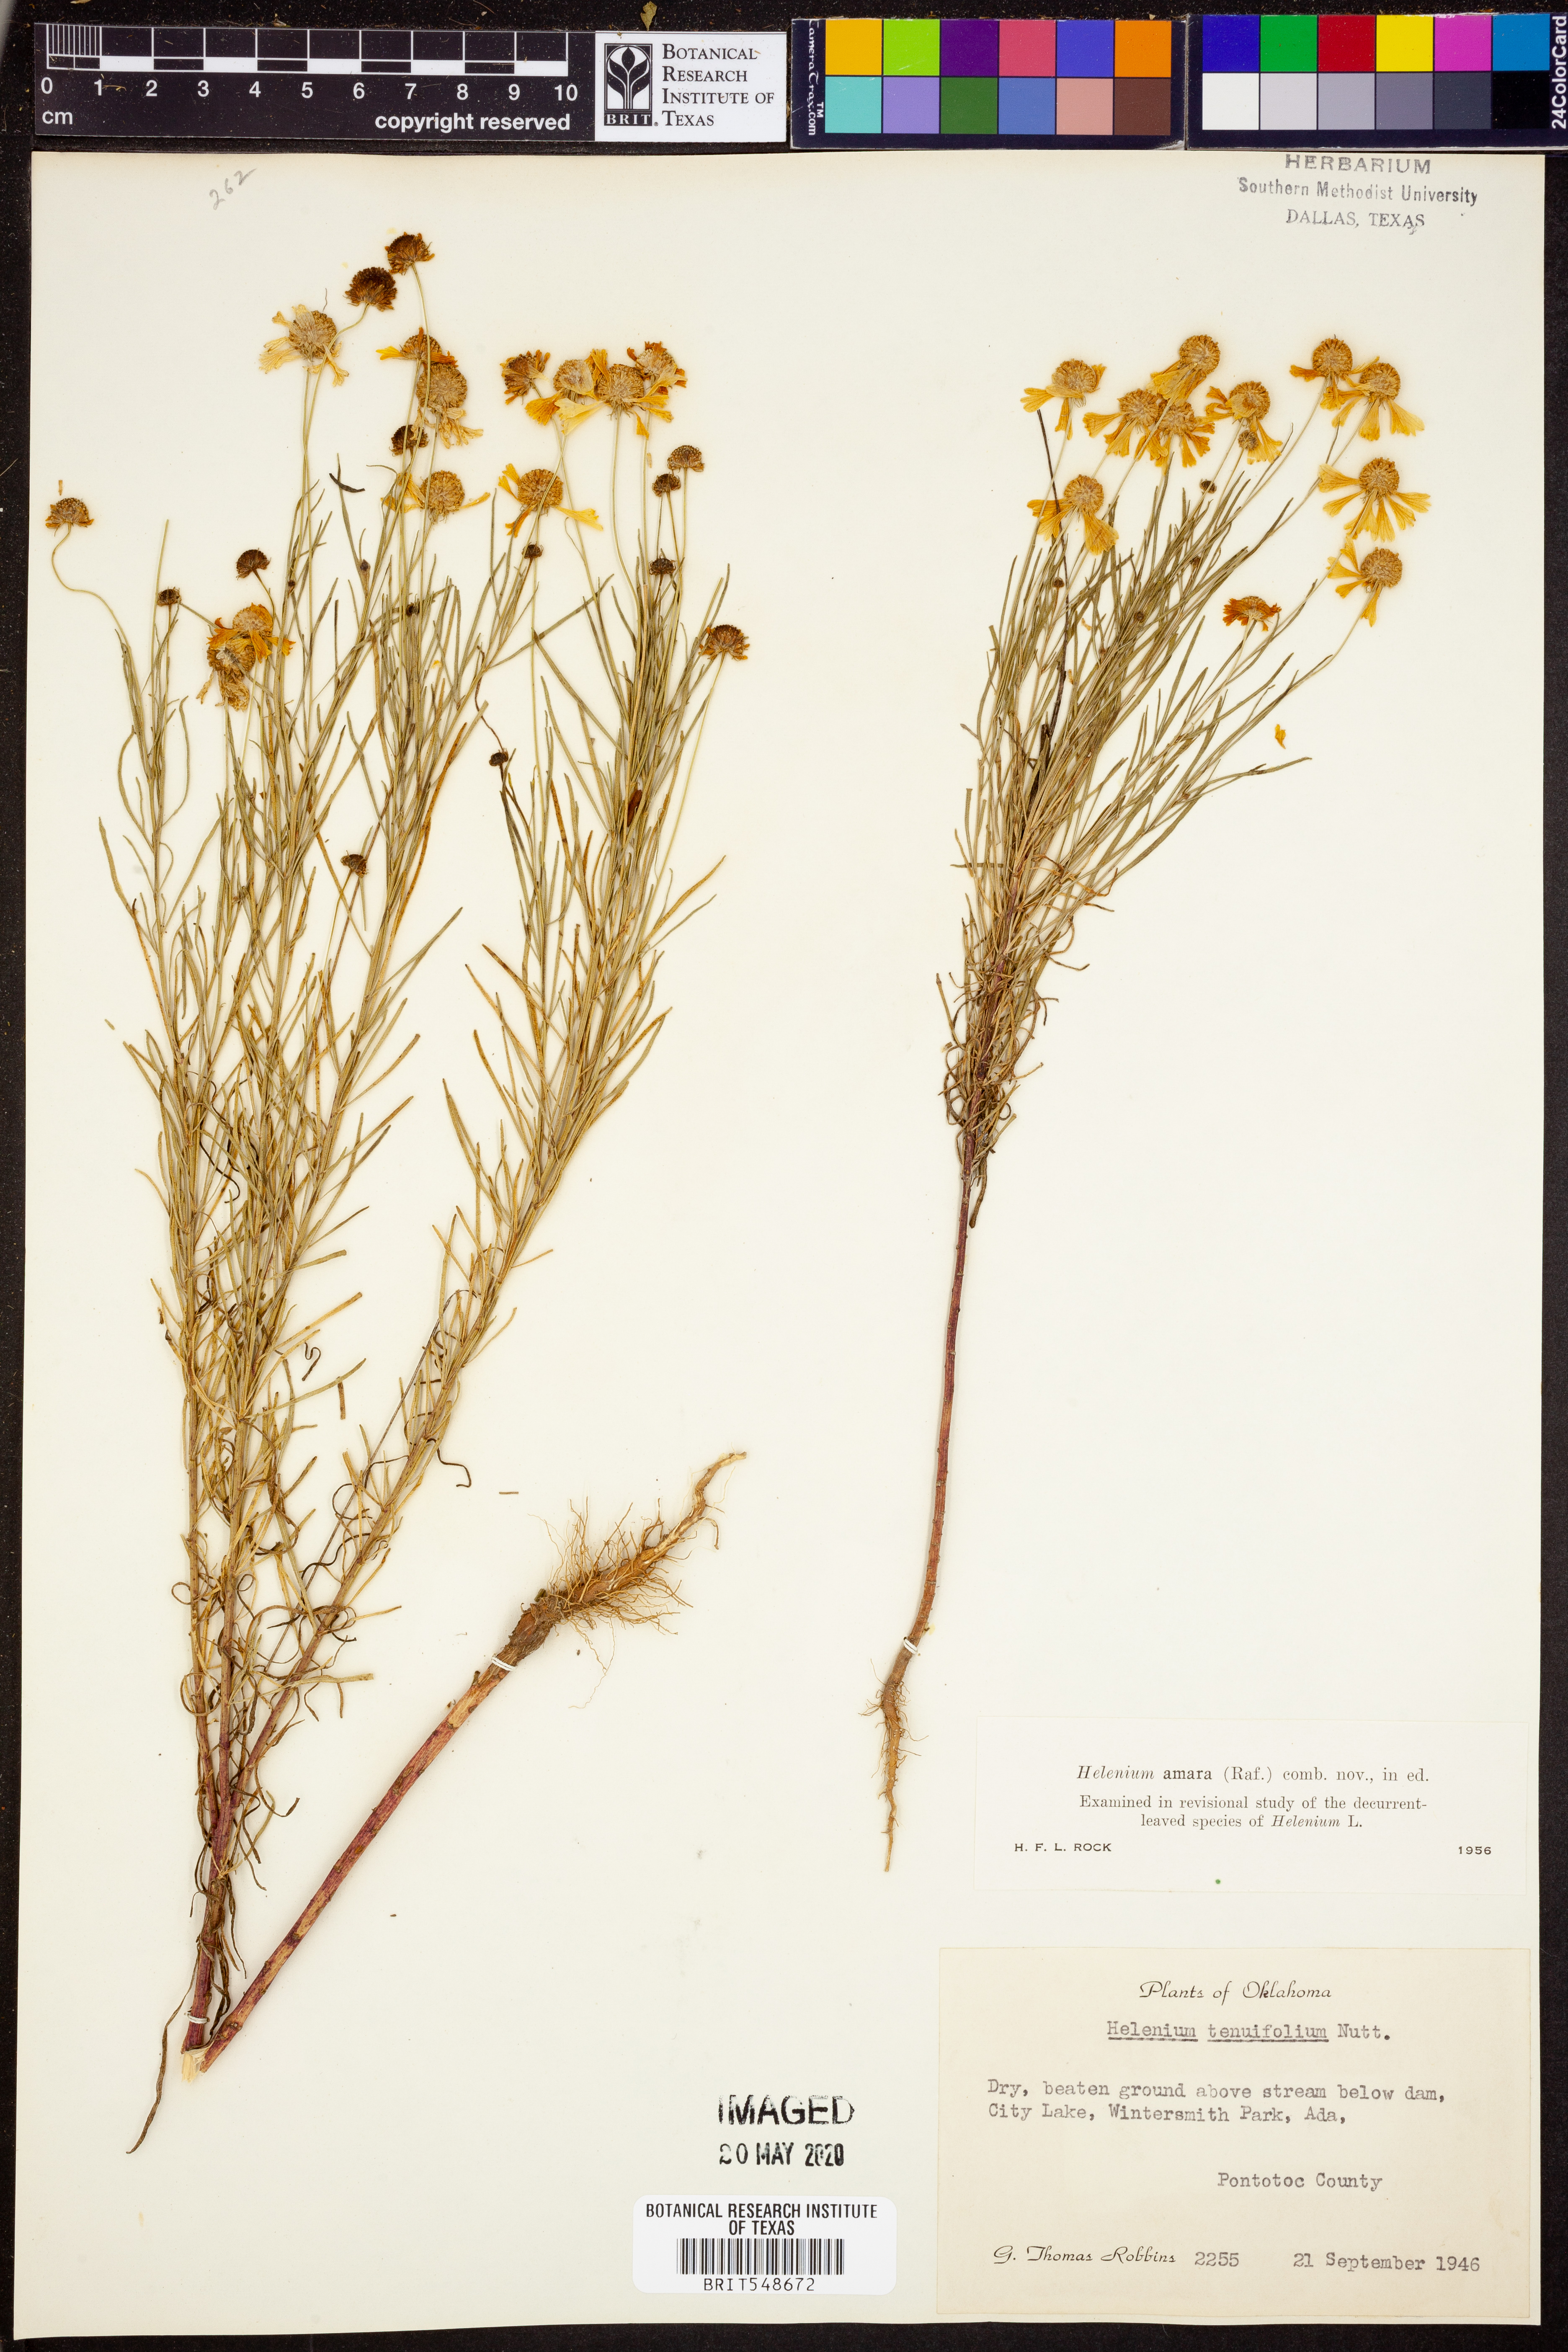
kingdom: Plantae
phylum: Tracheophyta
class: Magnoliopsida
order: Asterales
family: Asteraceae
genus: Helenium
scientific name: Helenium amarum
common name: Bitter sneezeweed
